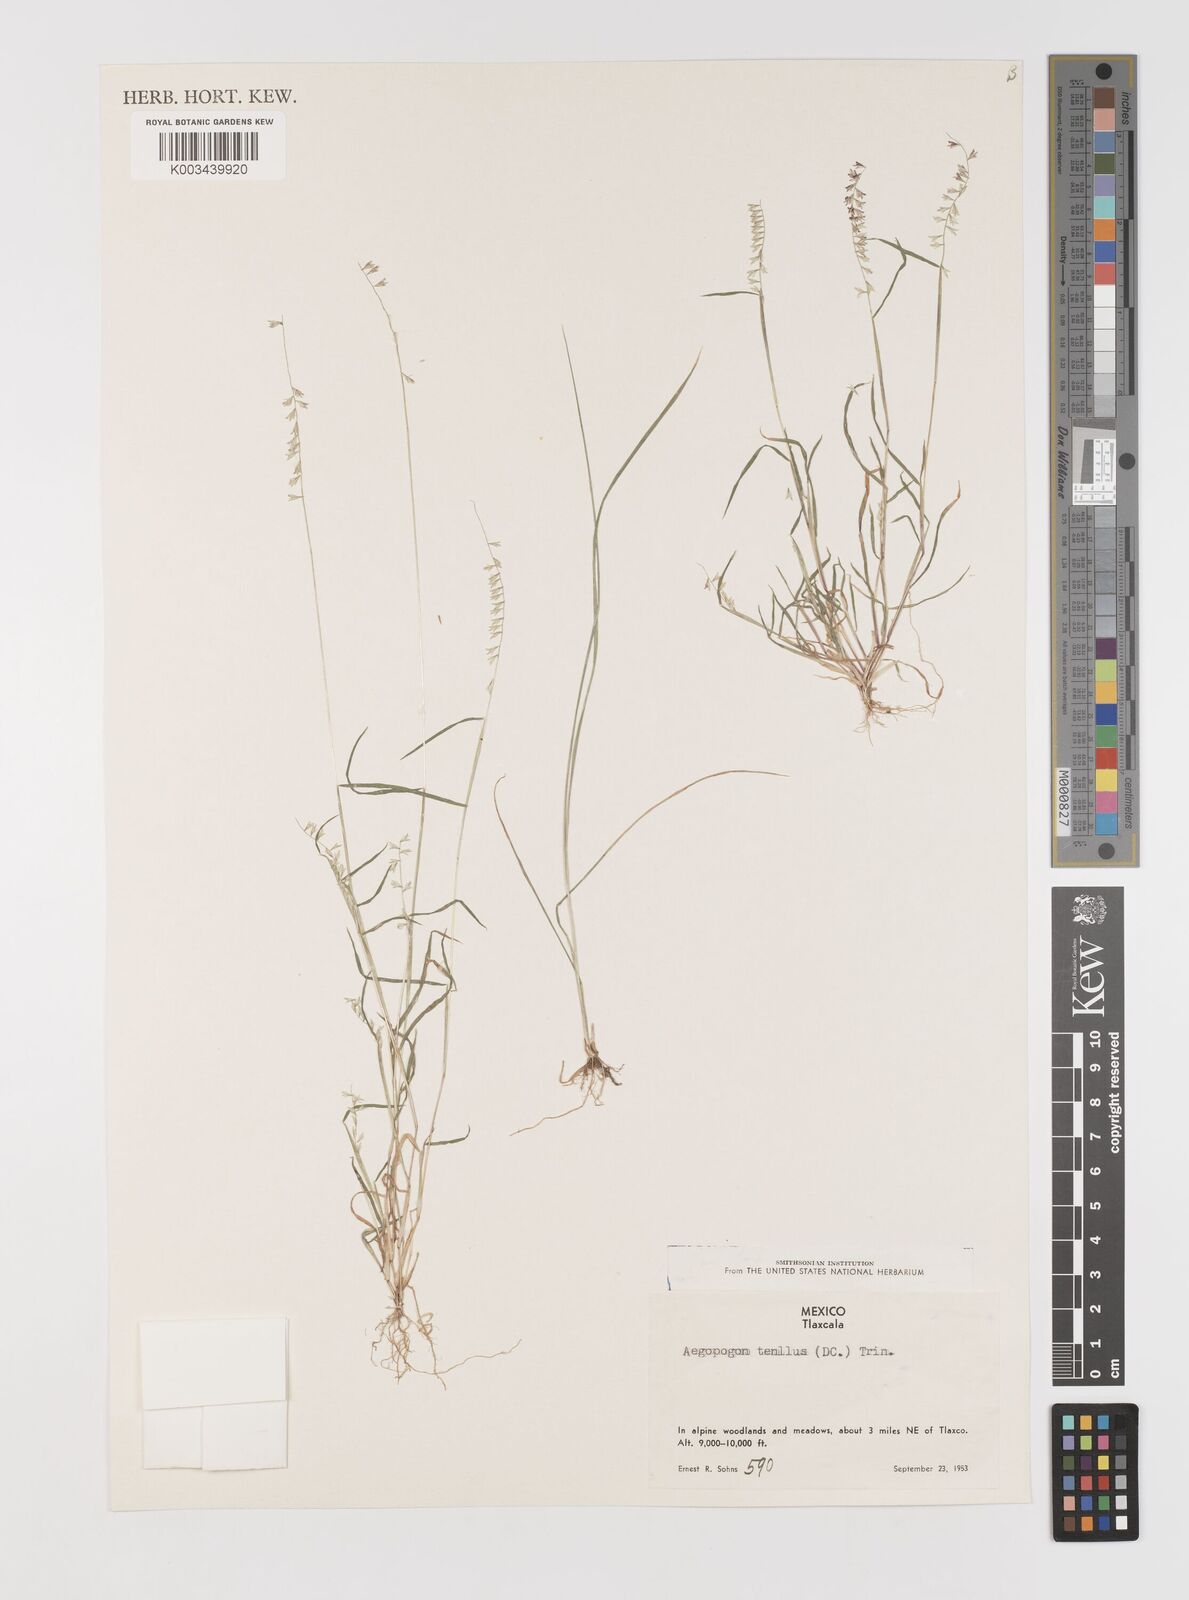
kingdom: Plantae
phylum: Tracheophyta
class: Liliopsida
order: Poales
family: Poaceae
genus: Muhlenbergia
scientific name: Muhlenbergia uniseta
